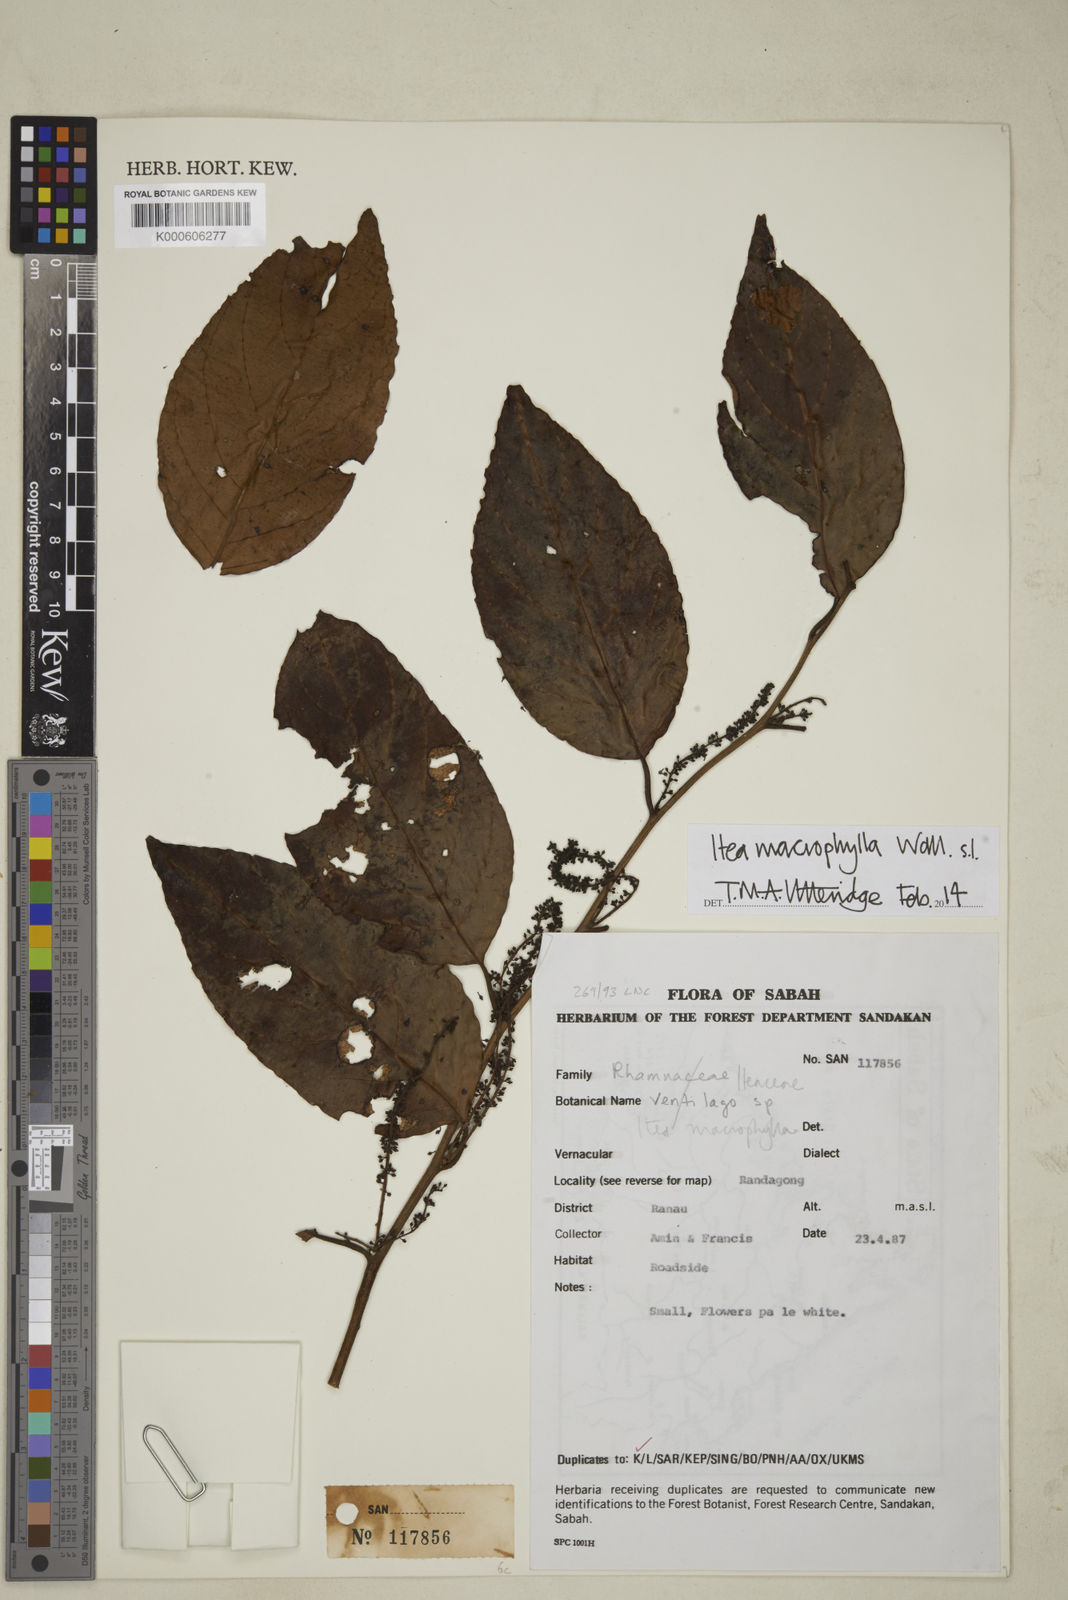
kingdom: Plantae
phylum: Tracheophyta
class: Magnoliopsida
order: Saxifragales
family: Iteaceae
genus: Itea
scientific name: Itea macrophylla
